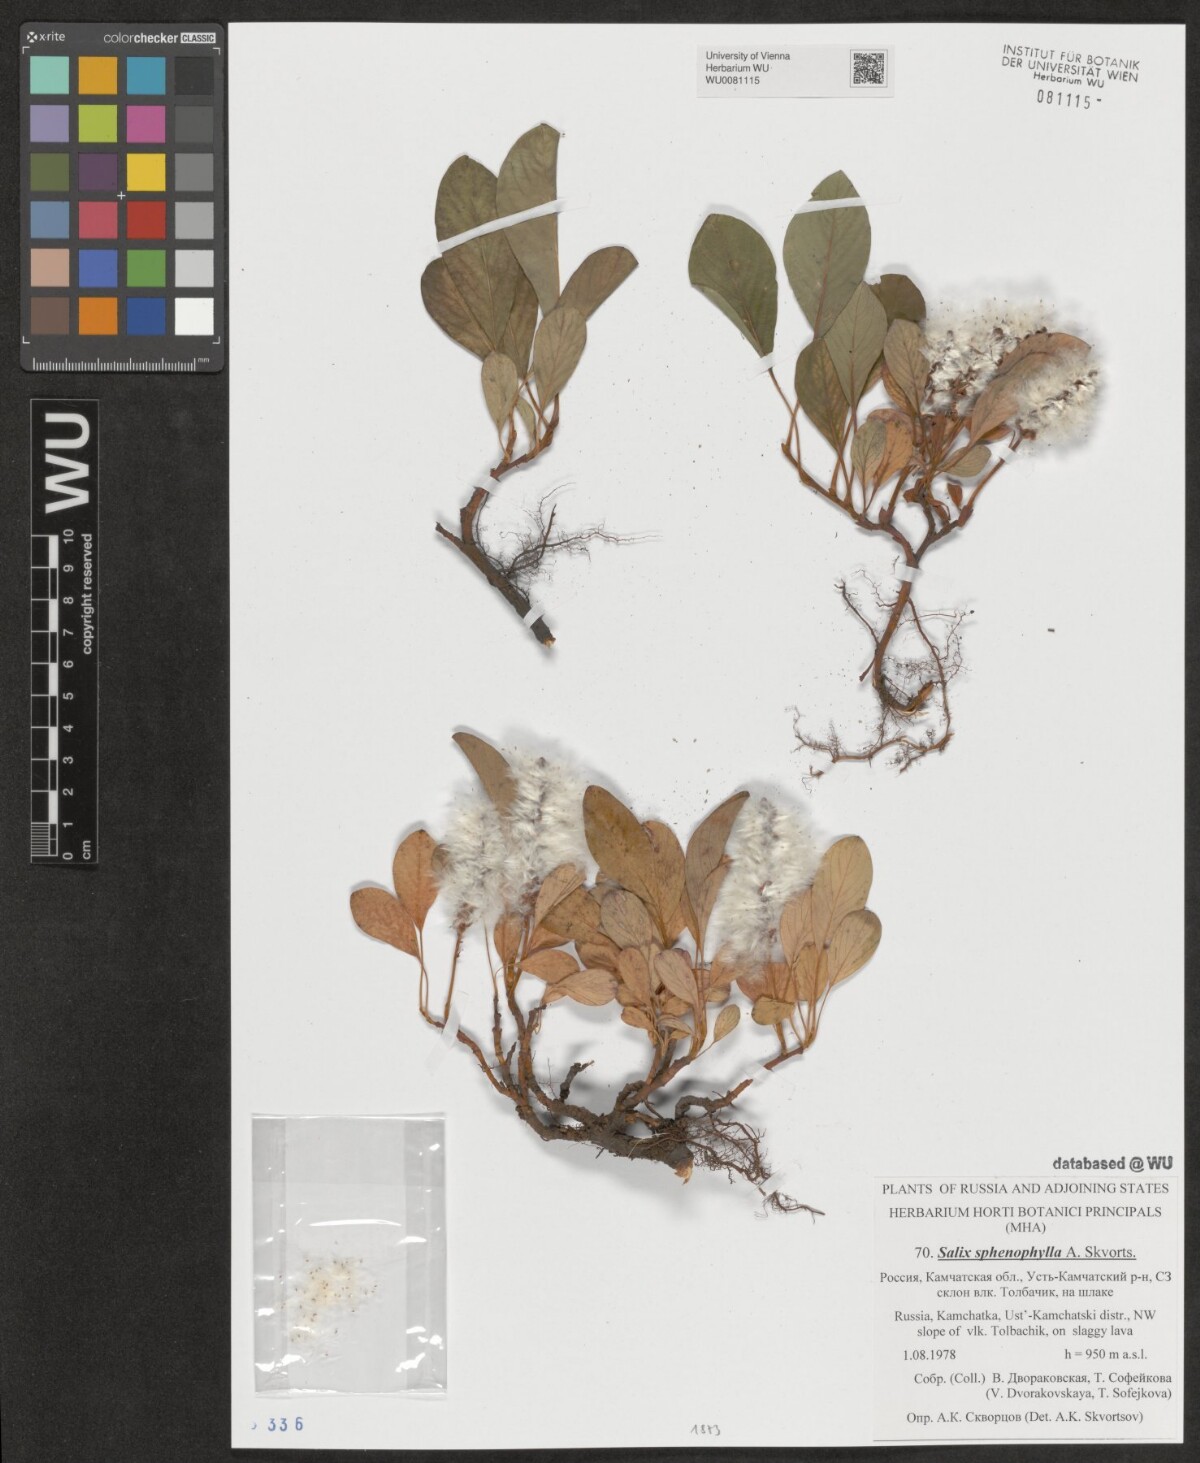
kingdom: Plantae
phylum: Tracheophyta
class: Magnoliopsida
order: Malpighiales
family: Salicaceae
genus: Salix
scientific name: Salix sphenophylla
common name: Wedge-leaved willow
